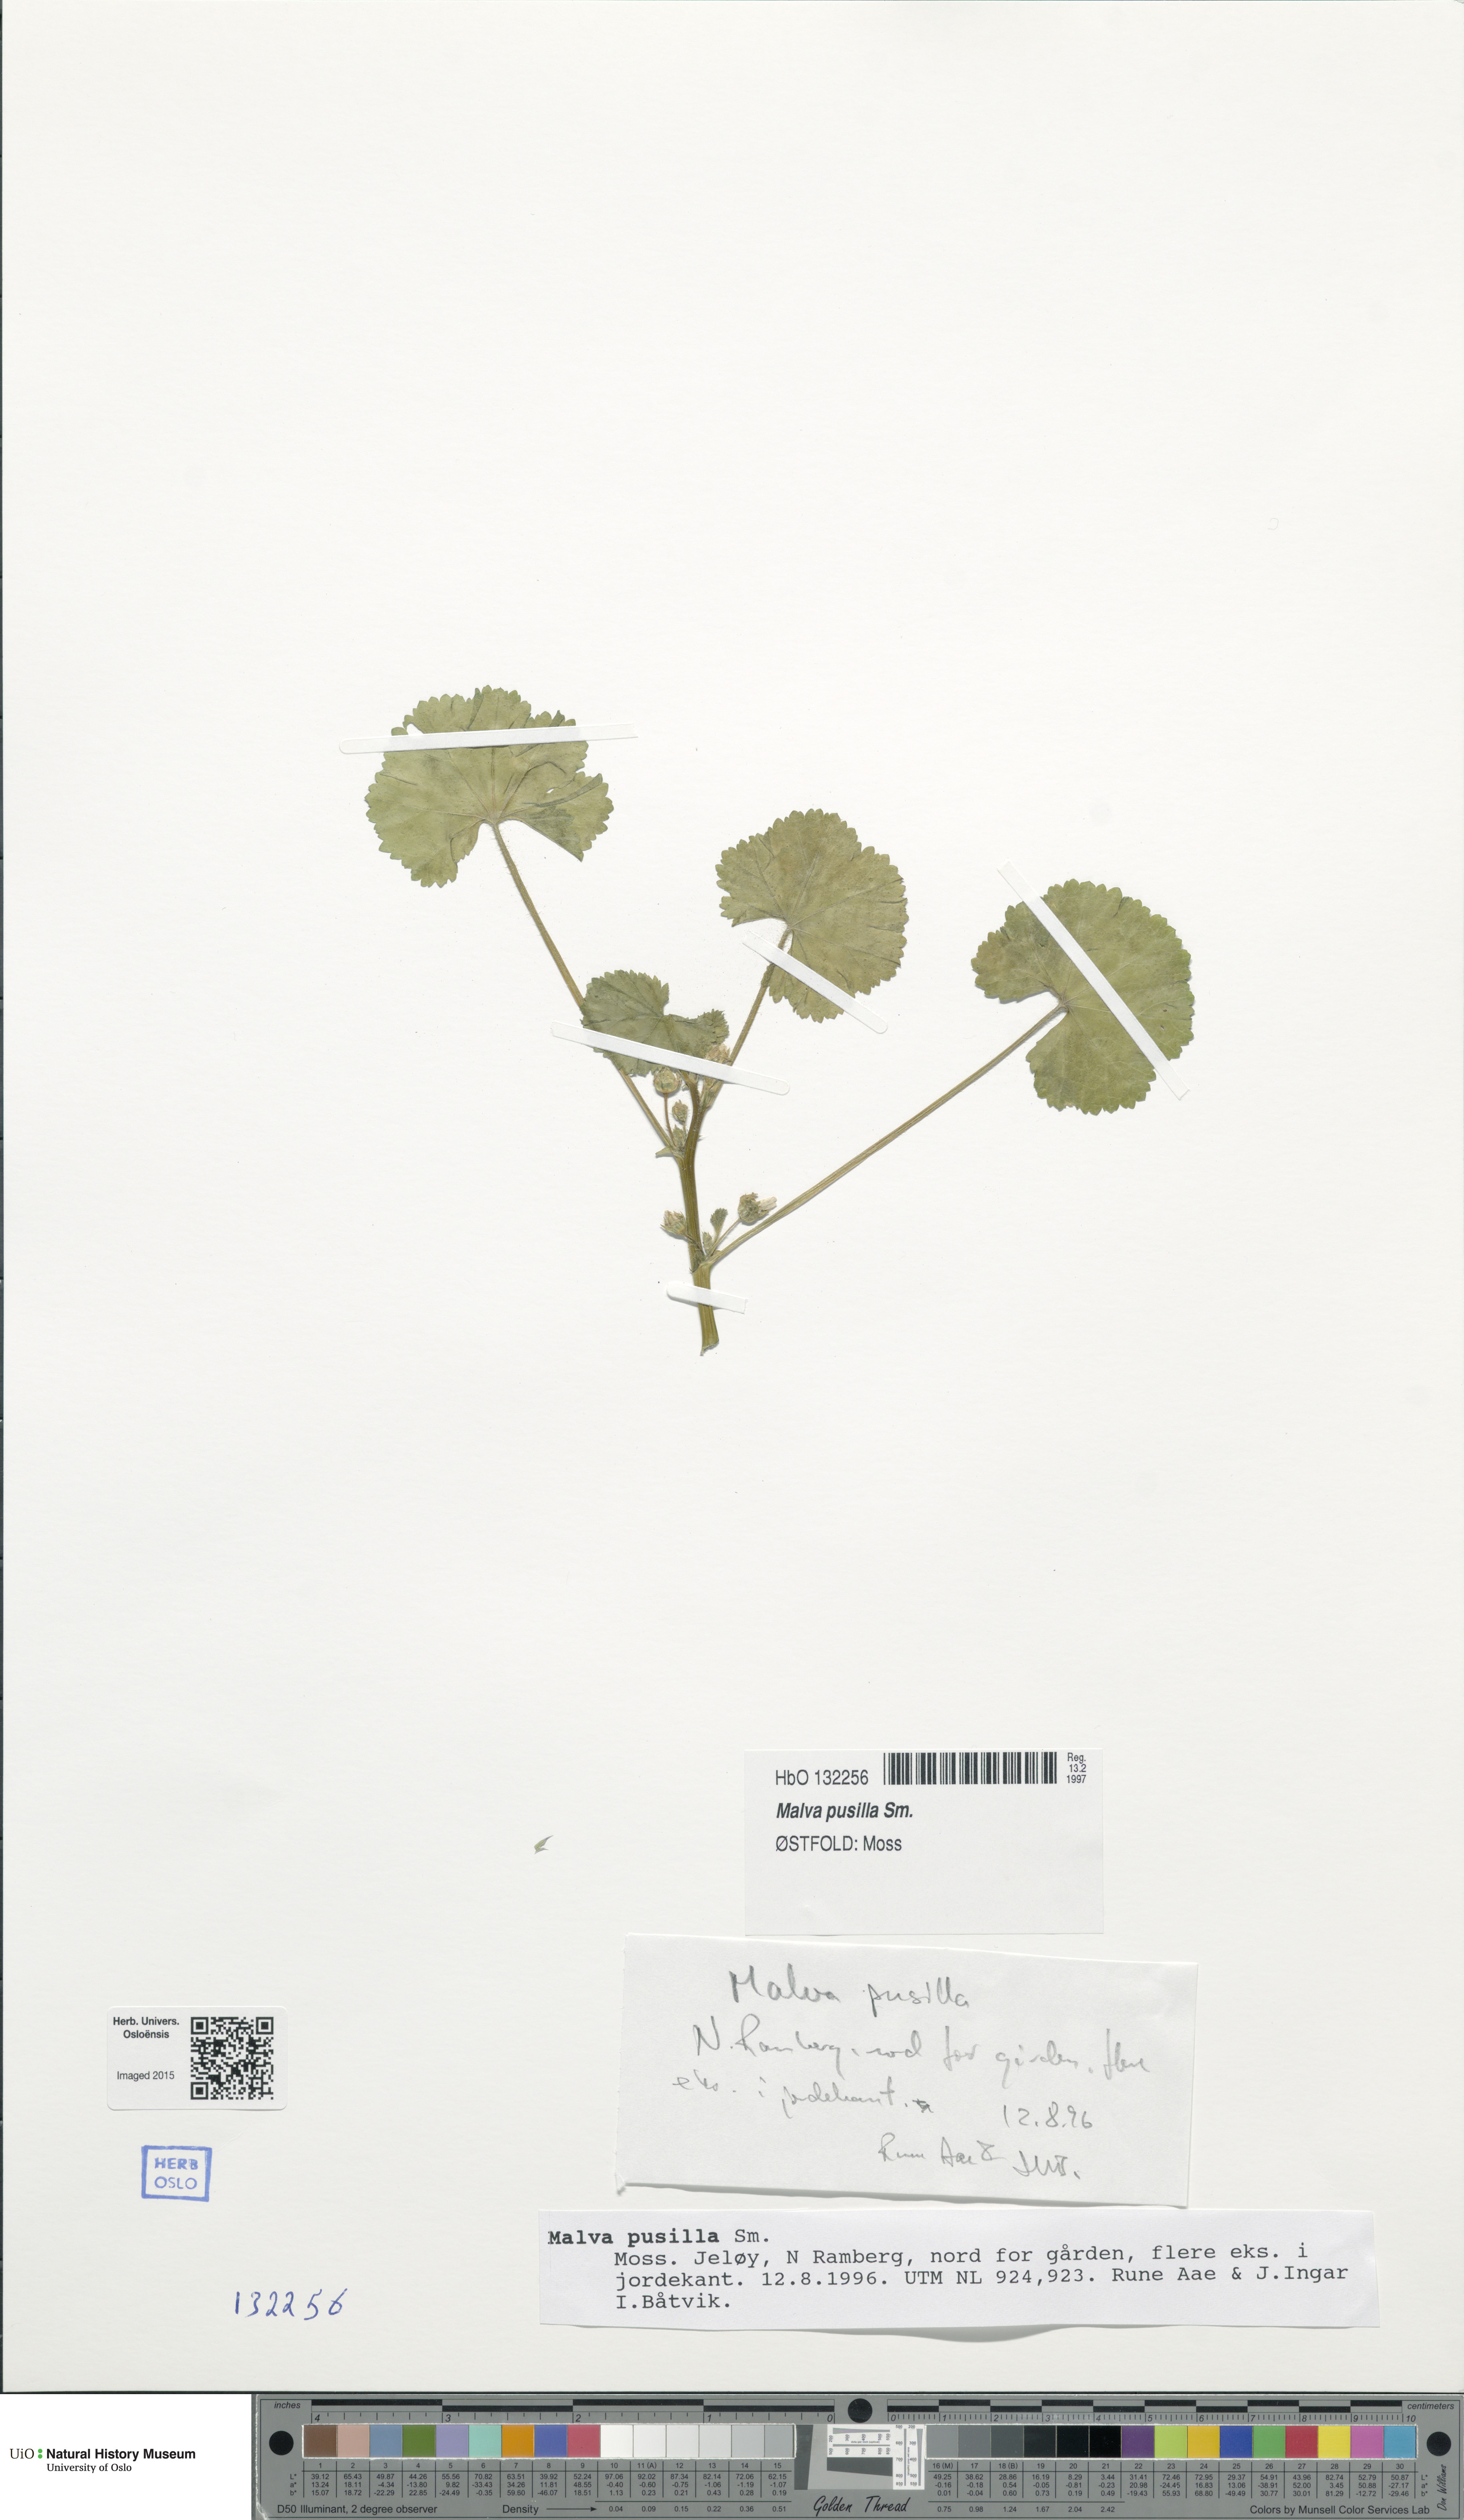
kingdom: Plantae
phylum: Tracheophyta
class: Magnoliopsida
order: Malvales
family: Malvaceae
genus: Malva
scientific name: Malva pusilla
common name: Small mallow
